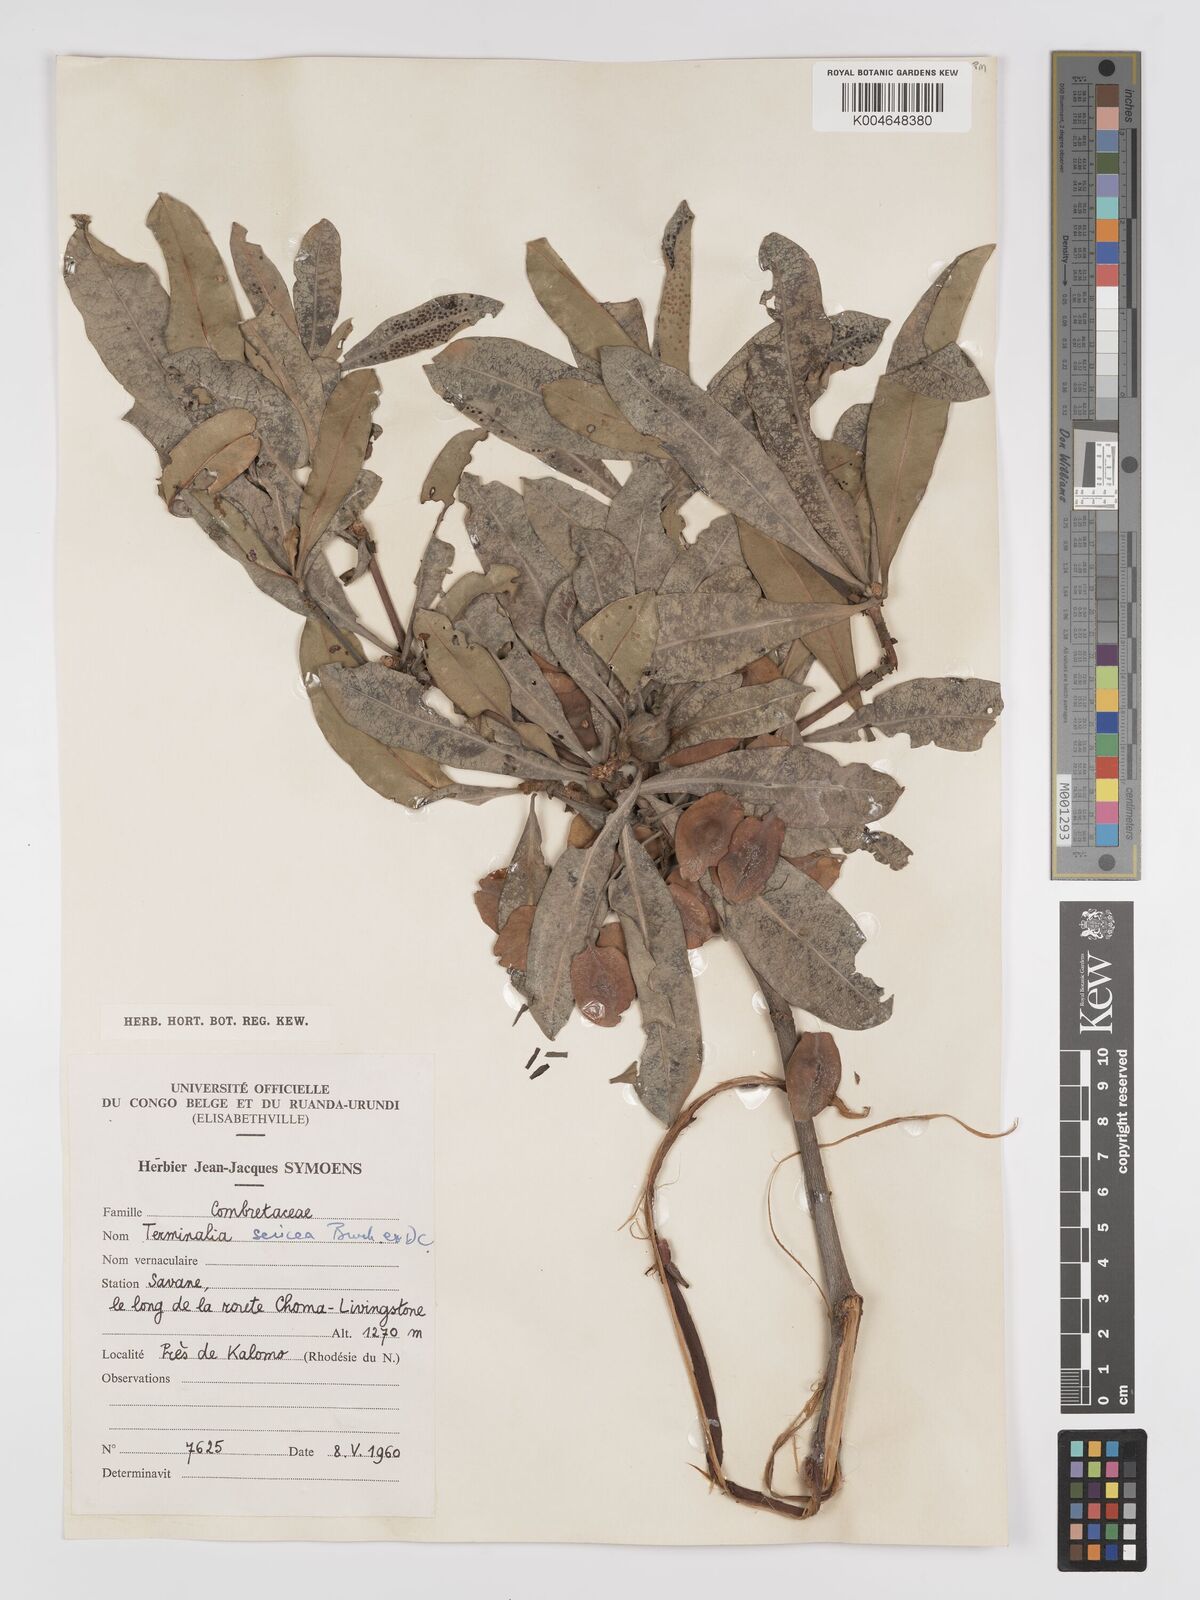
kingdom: Plantae
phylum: Tracheophyta
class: Magnoliopsida
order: Myrtales
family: Combretaceae
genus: Terminalia
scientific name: Terminalia
